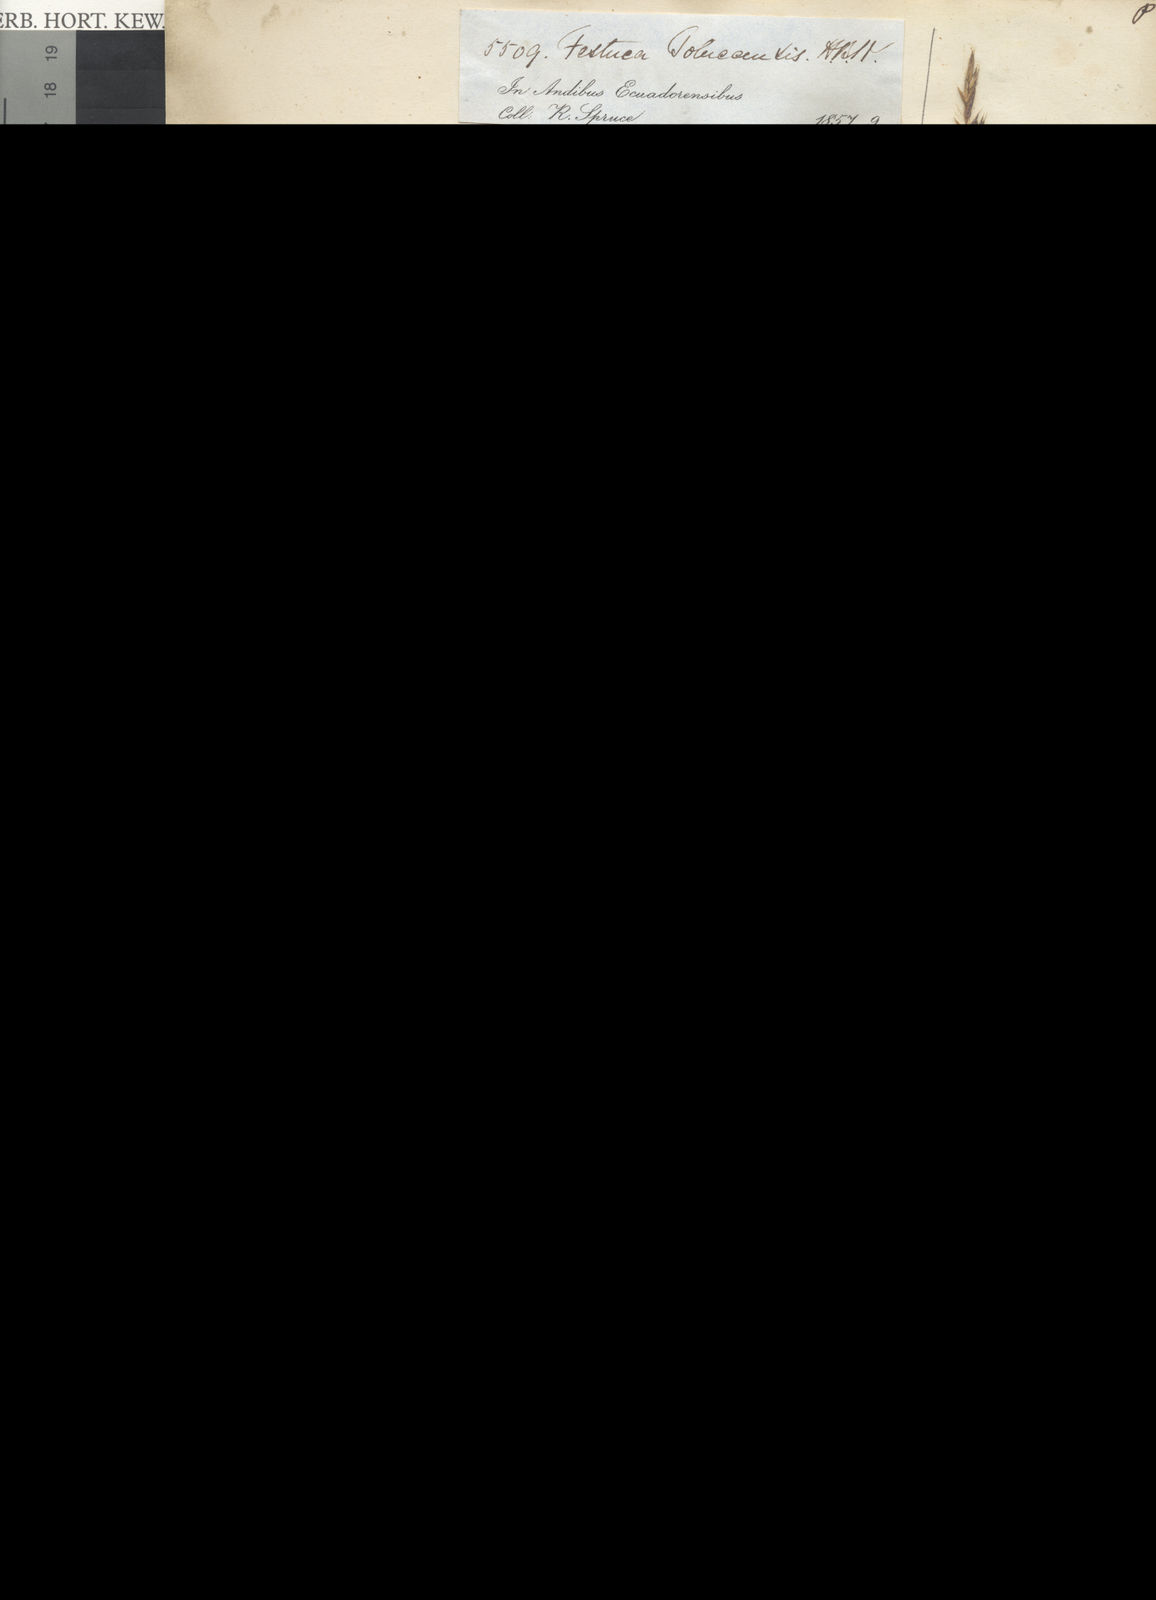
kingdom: Plantae
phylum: Tracheophyta
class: Liliopsida
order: Poales
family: Poaceae
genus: Festuca
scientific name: Festuca dolichophylla
